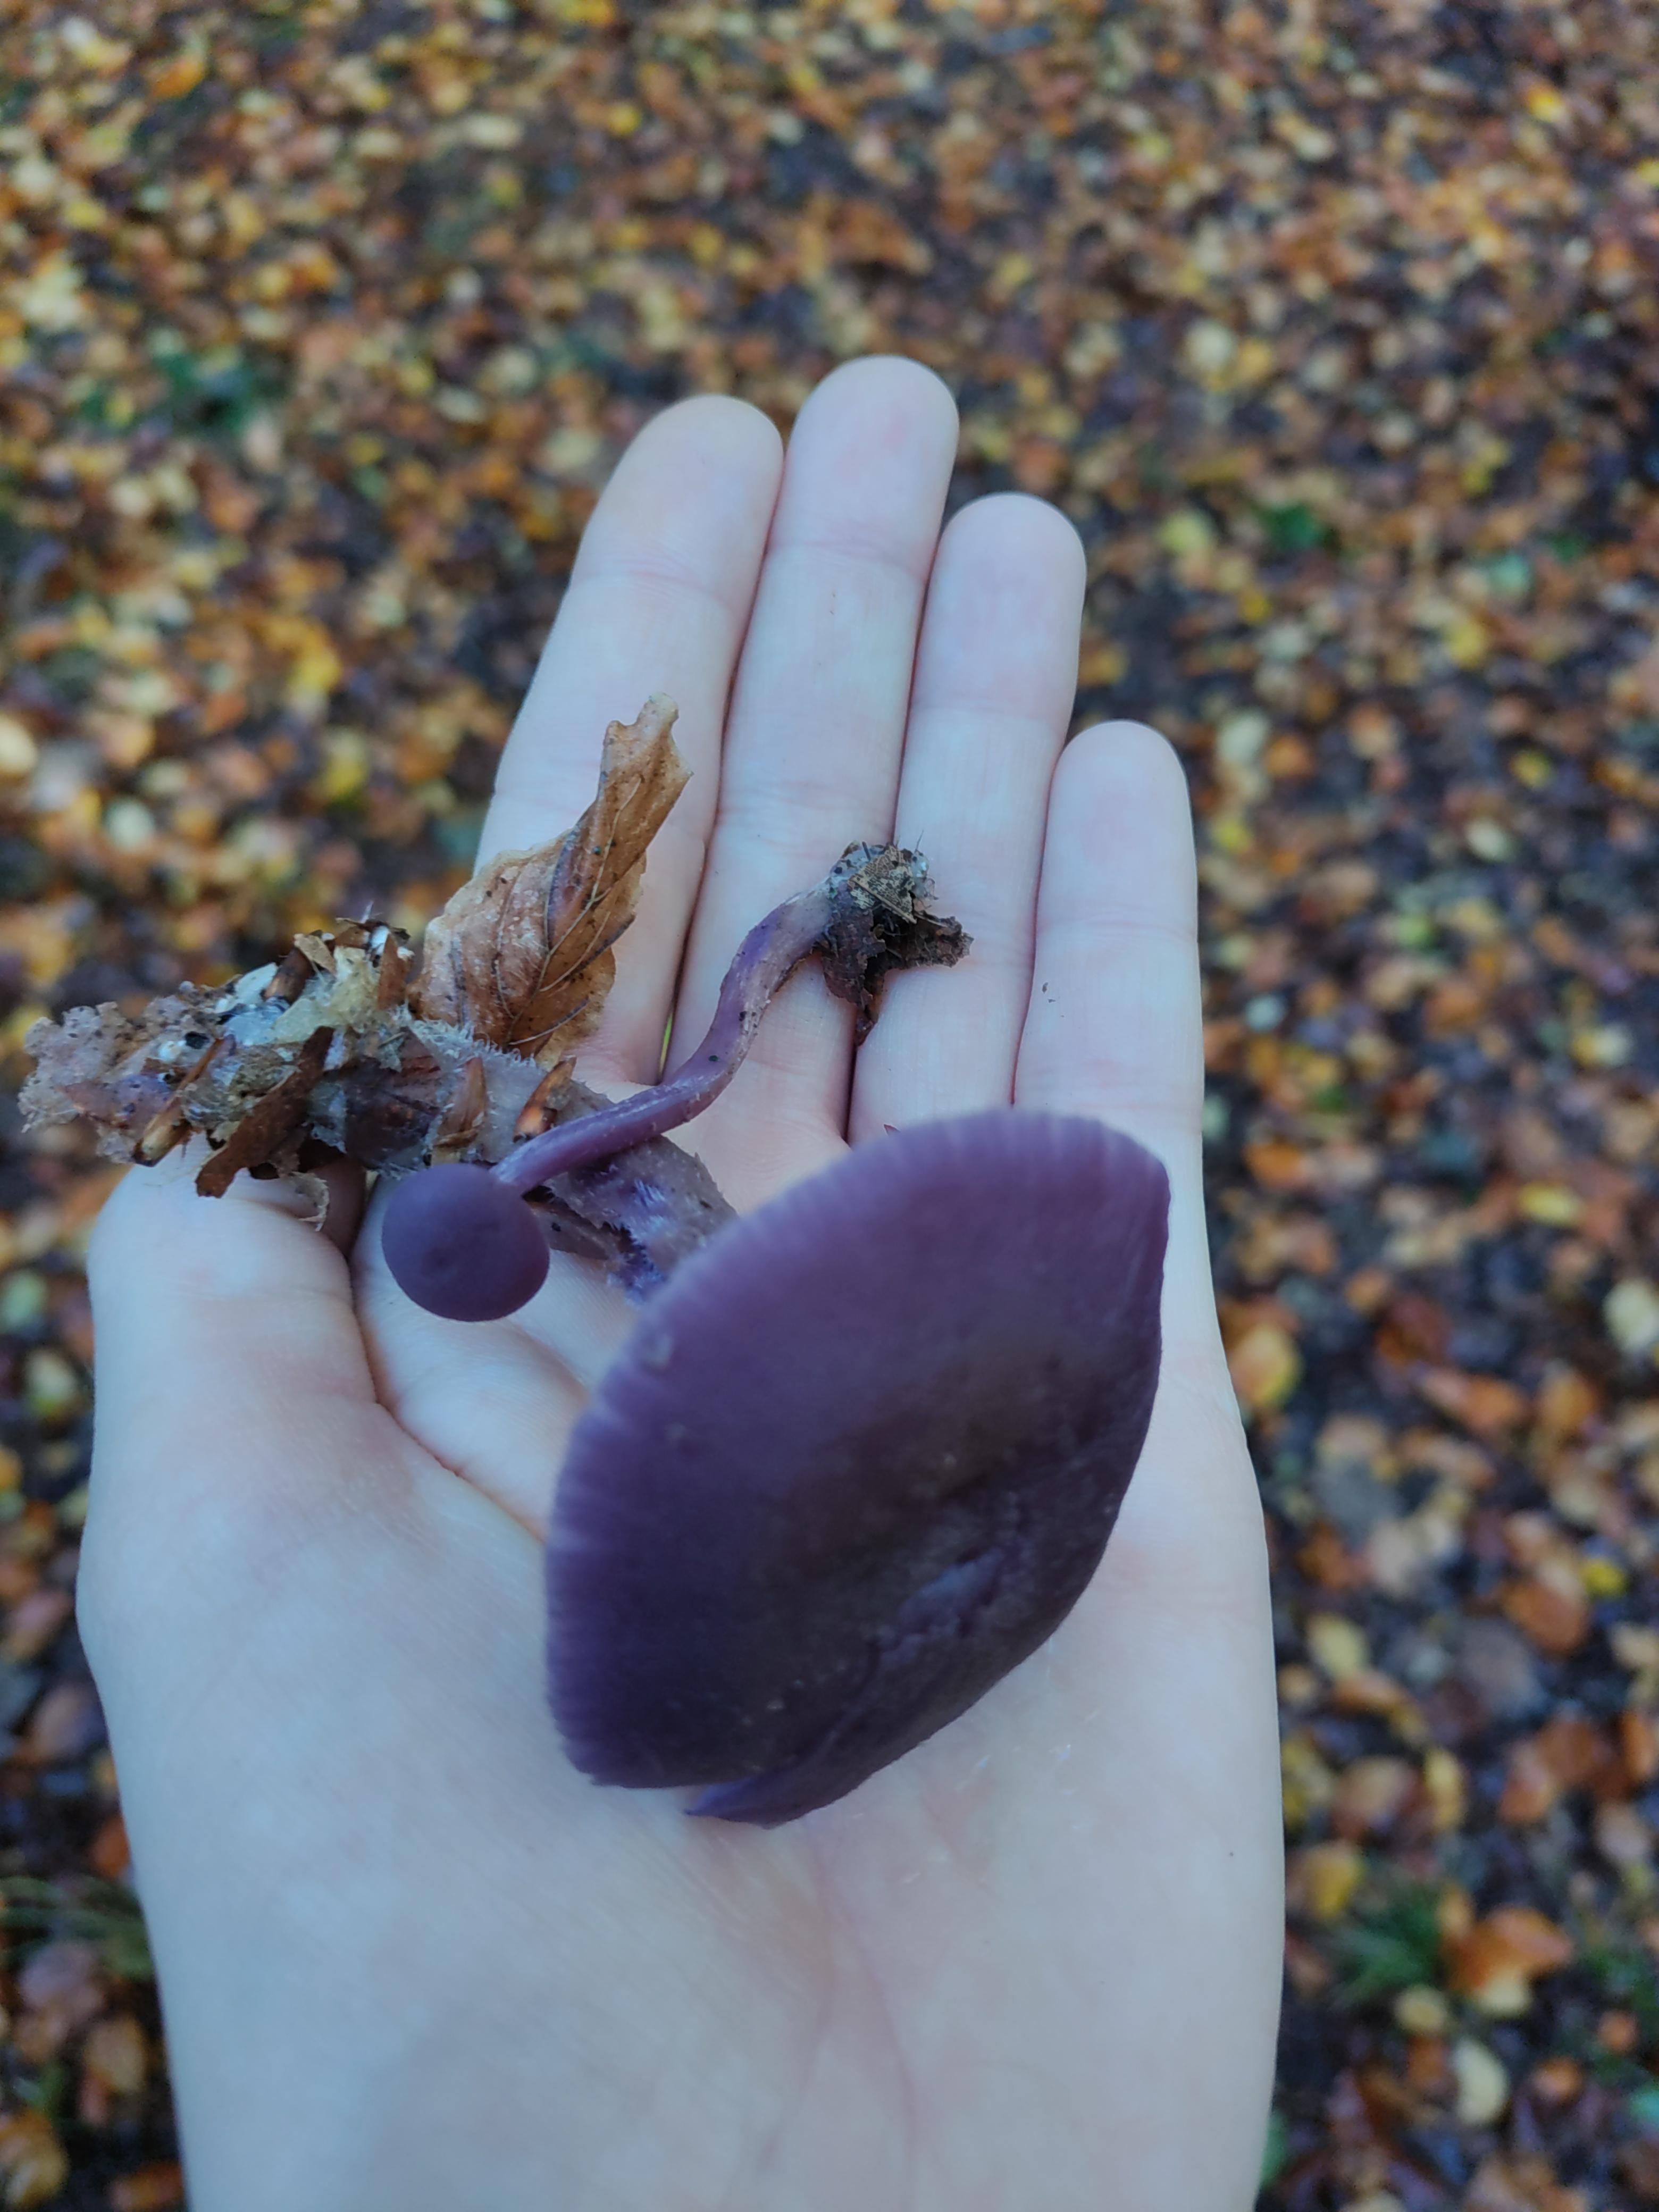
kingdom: Fungi
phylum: Basidiomycota
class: Agaricomycetes
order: Agaricales
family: Hydnangiaceae
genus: Laccaria
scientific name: Laccaria amethystina
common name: violet ametysthat
